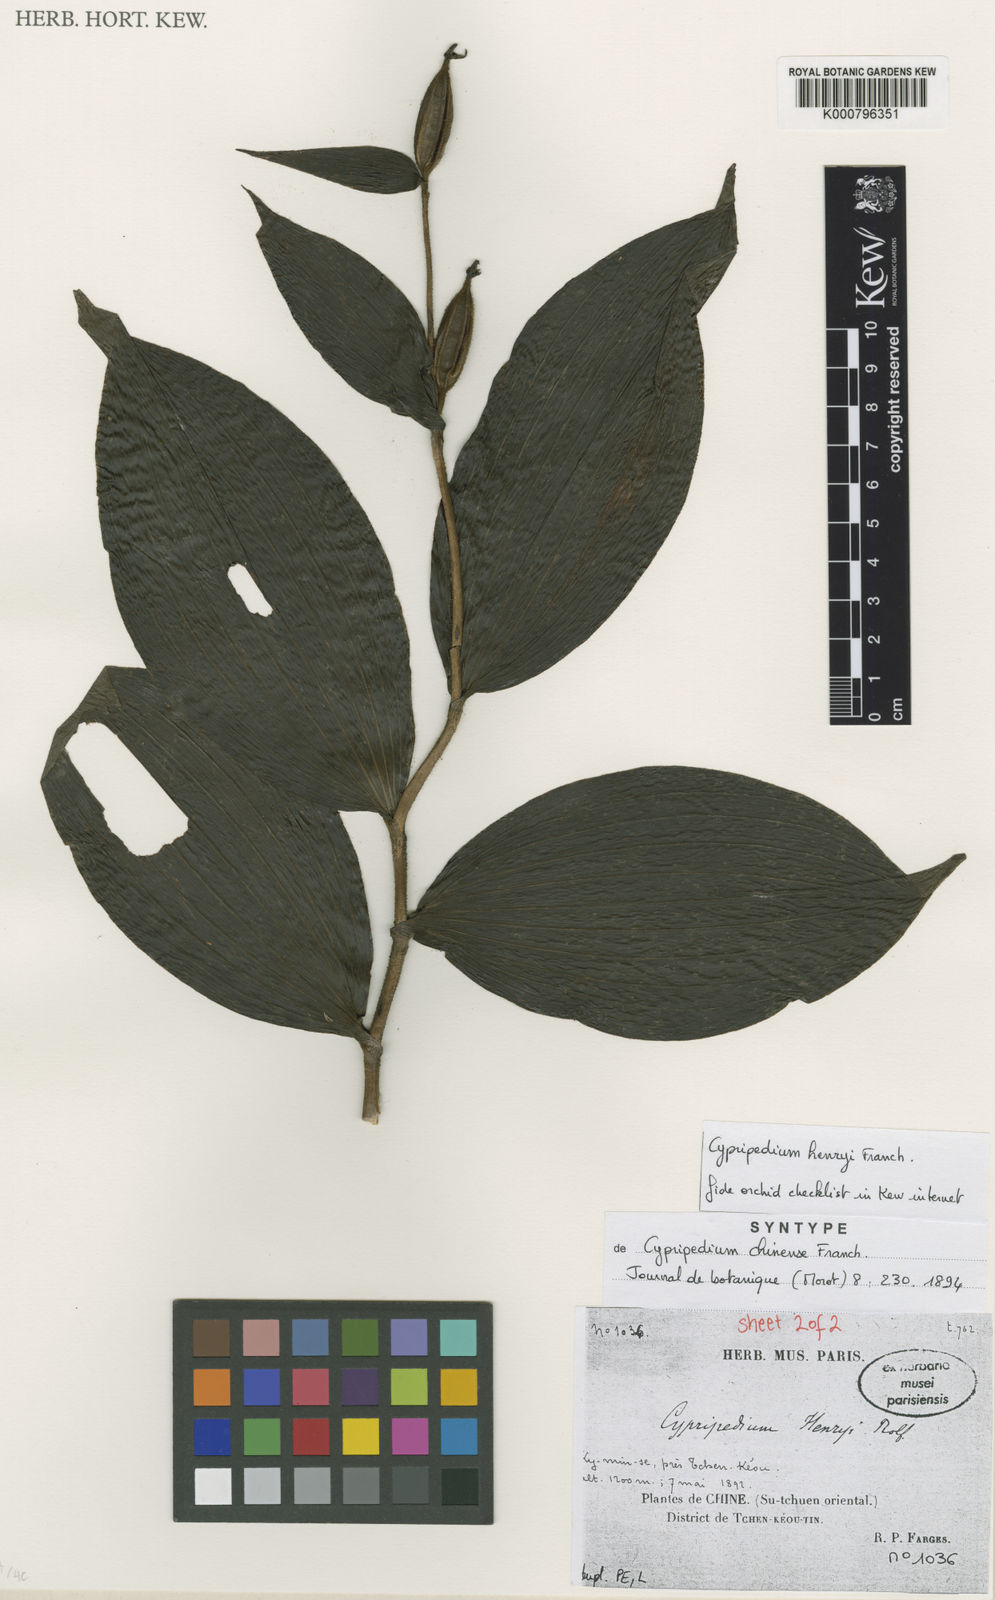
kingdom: Plantae
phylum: Tracheophyta
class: Liliopsida
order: Asparagales
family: Orchidaceae
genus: Cypripedium
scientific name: Cypripedium henryi
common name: Henry's cypripedium
